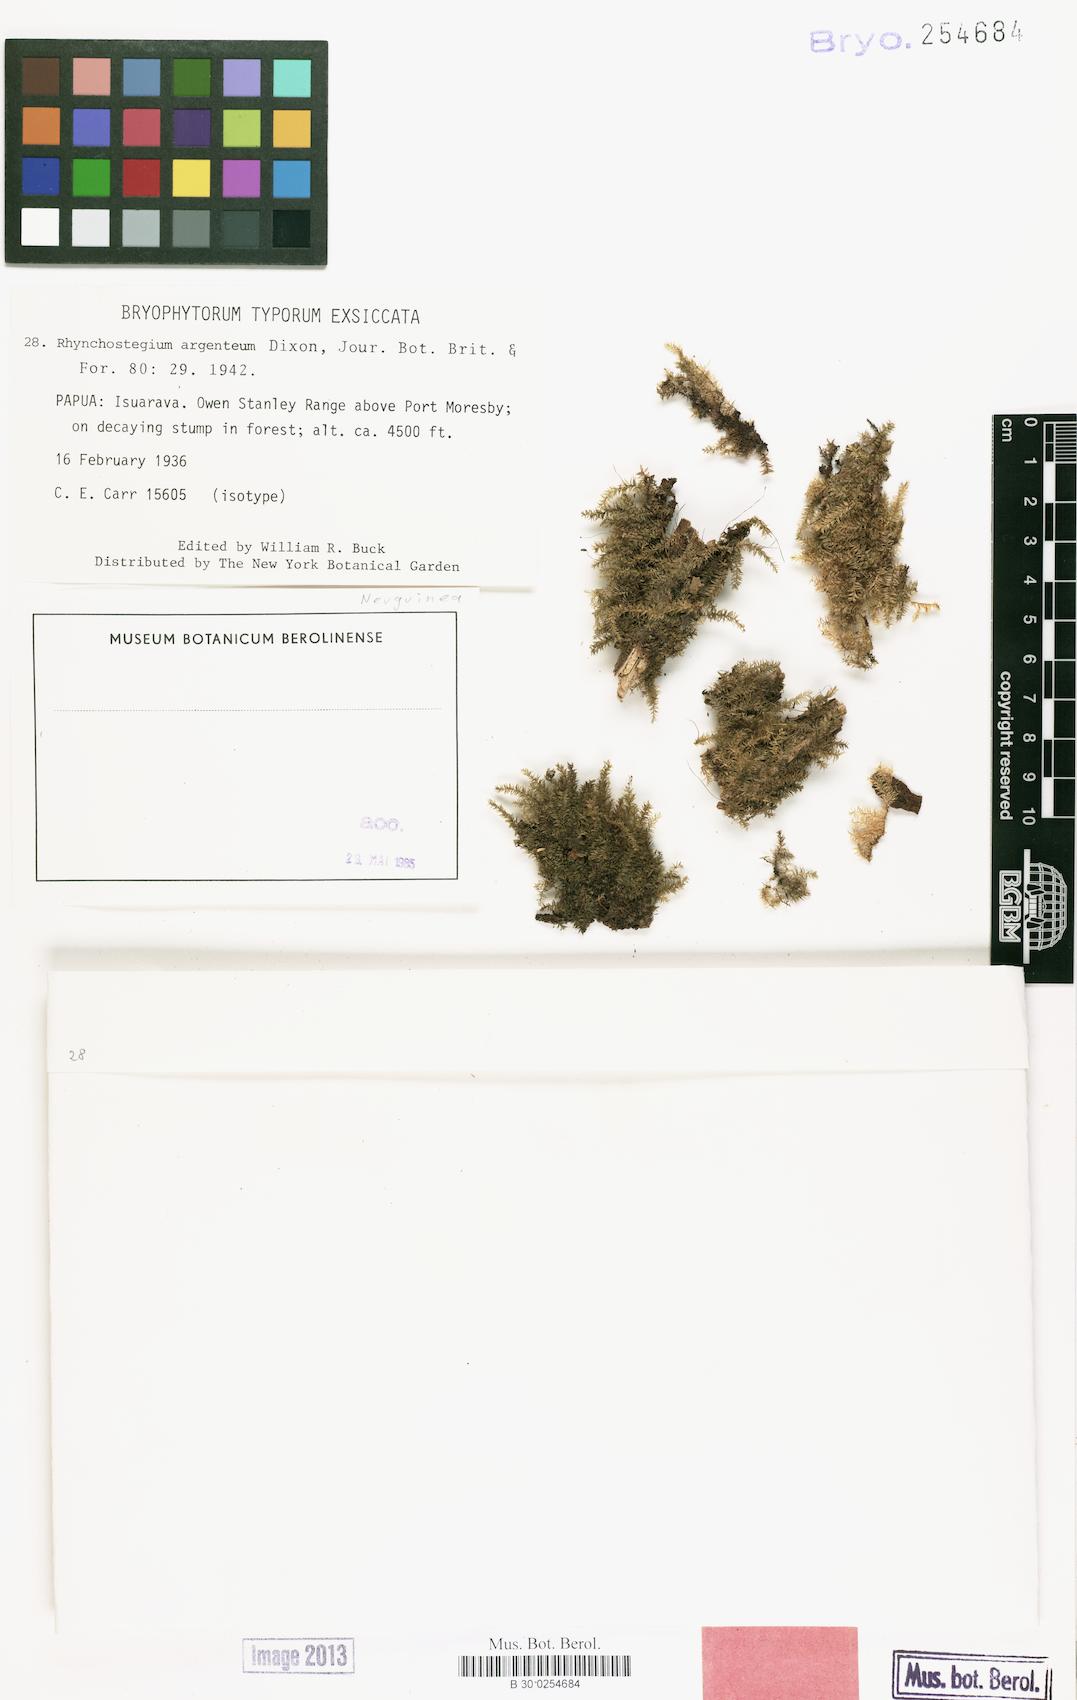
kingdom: Plantae
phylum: Bryophyta
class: Bryopsida
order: Hypnales
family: Brachytheciaceae
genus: Rhynchostegium
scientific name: Rhynchostegium javanicum
